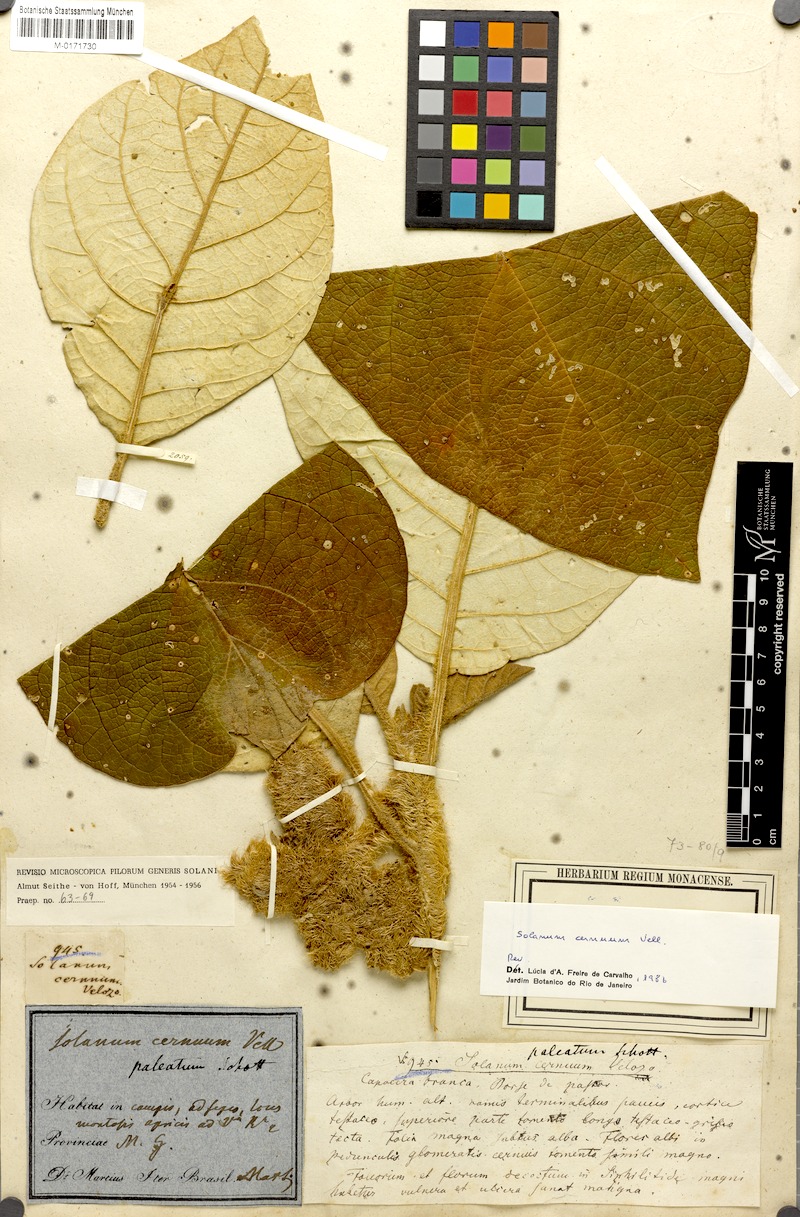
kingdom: Plantae
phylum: Tracheophyta
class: Magnoliopsida
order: Solanales
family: Solanaceae
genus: Solanum
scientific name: Solanum cernuum
